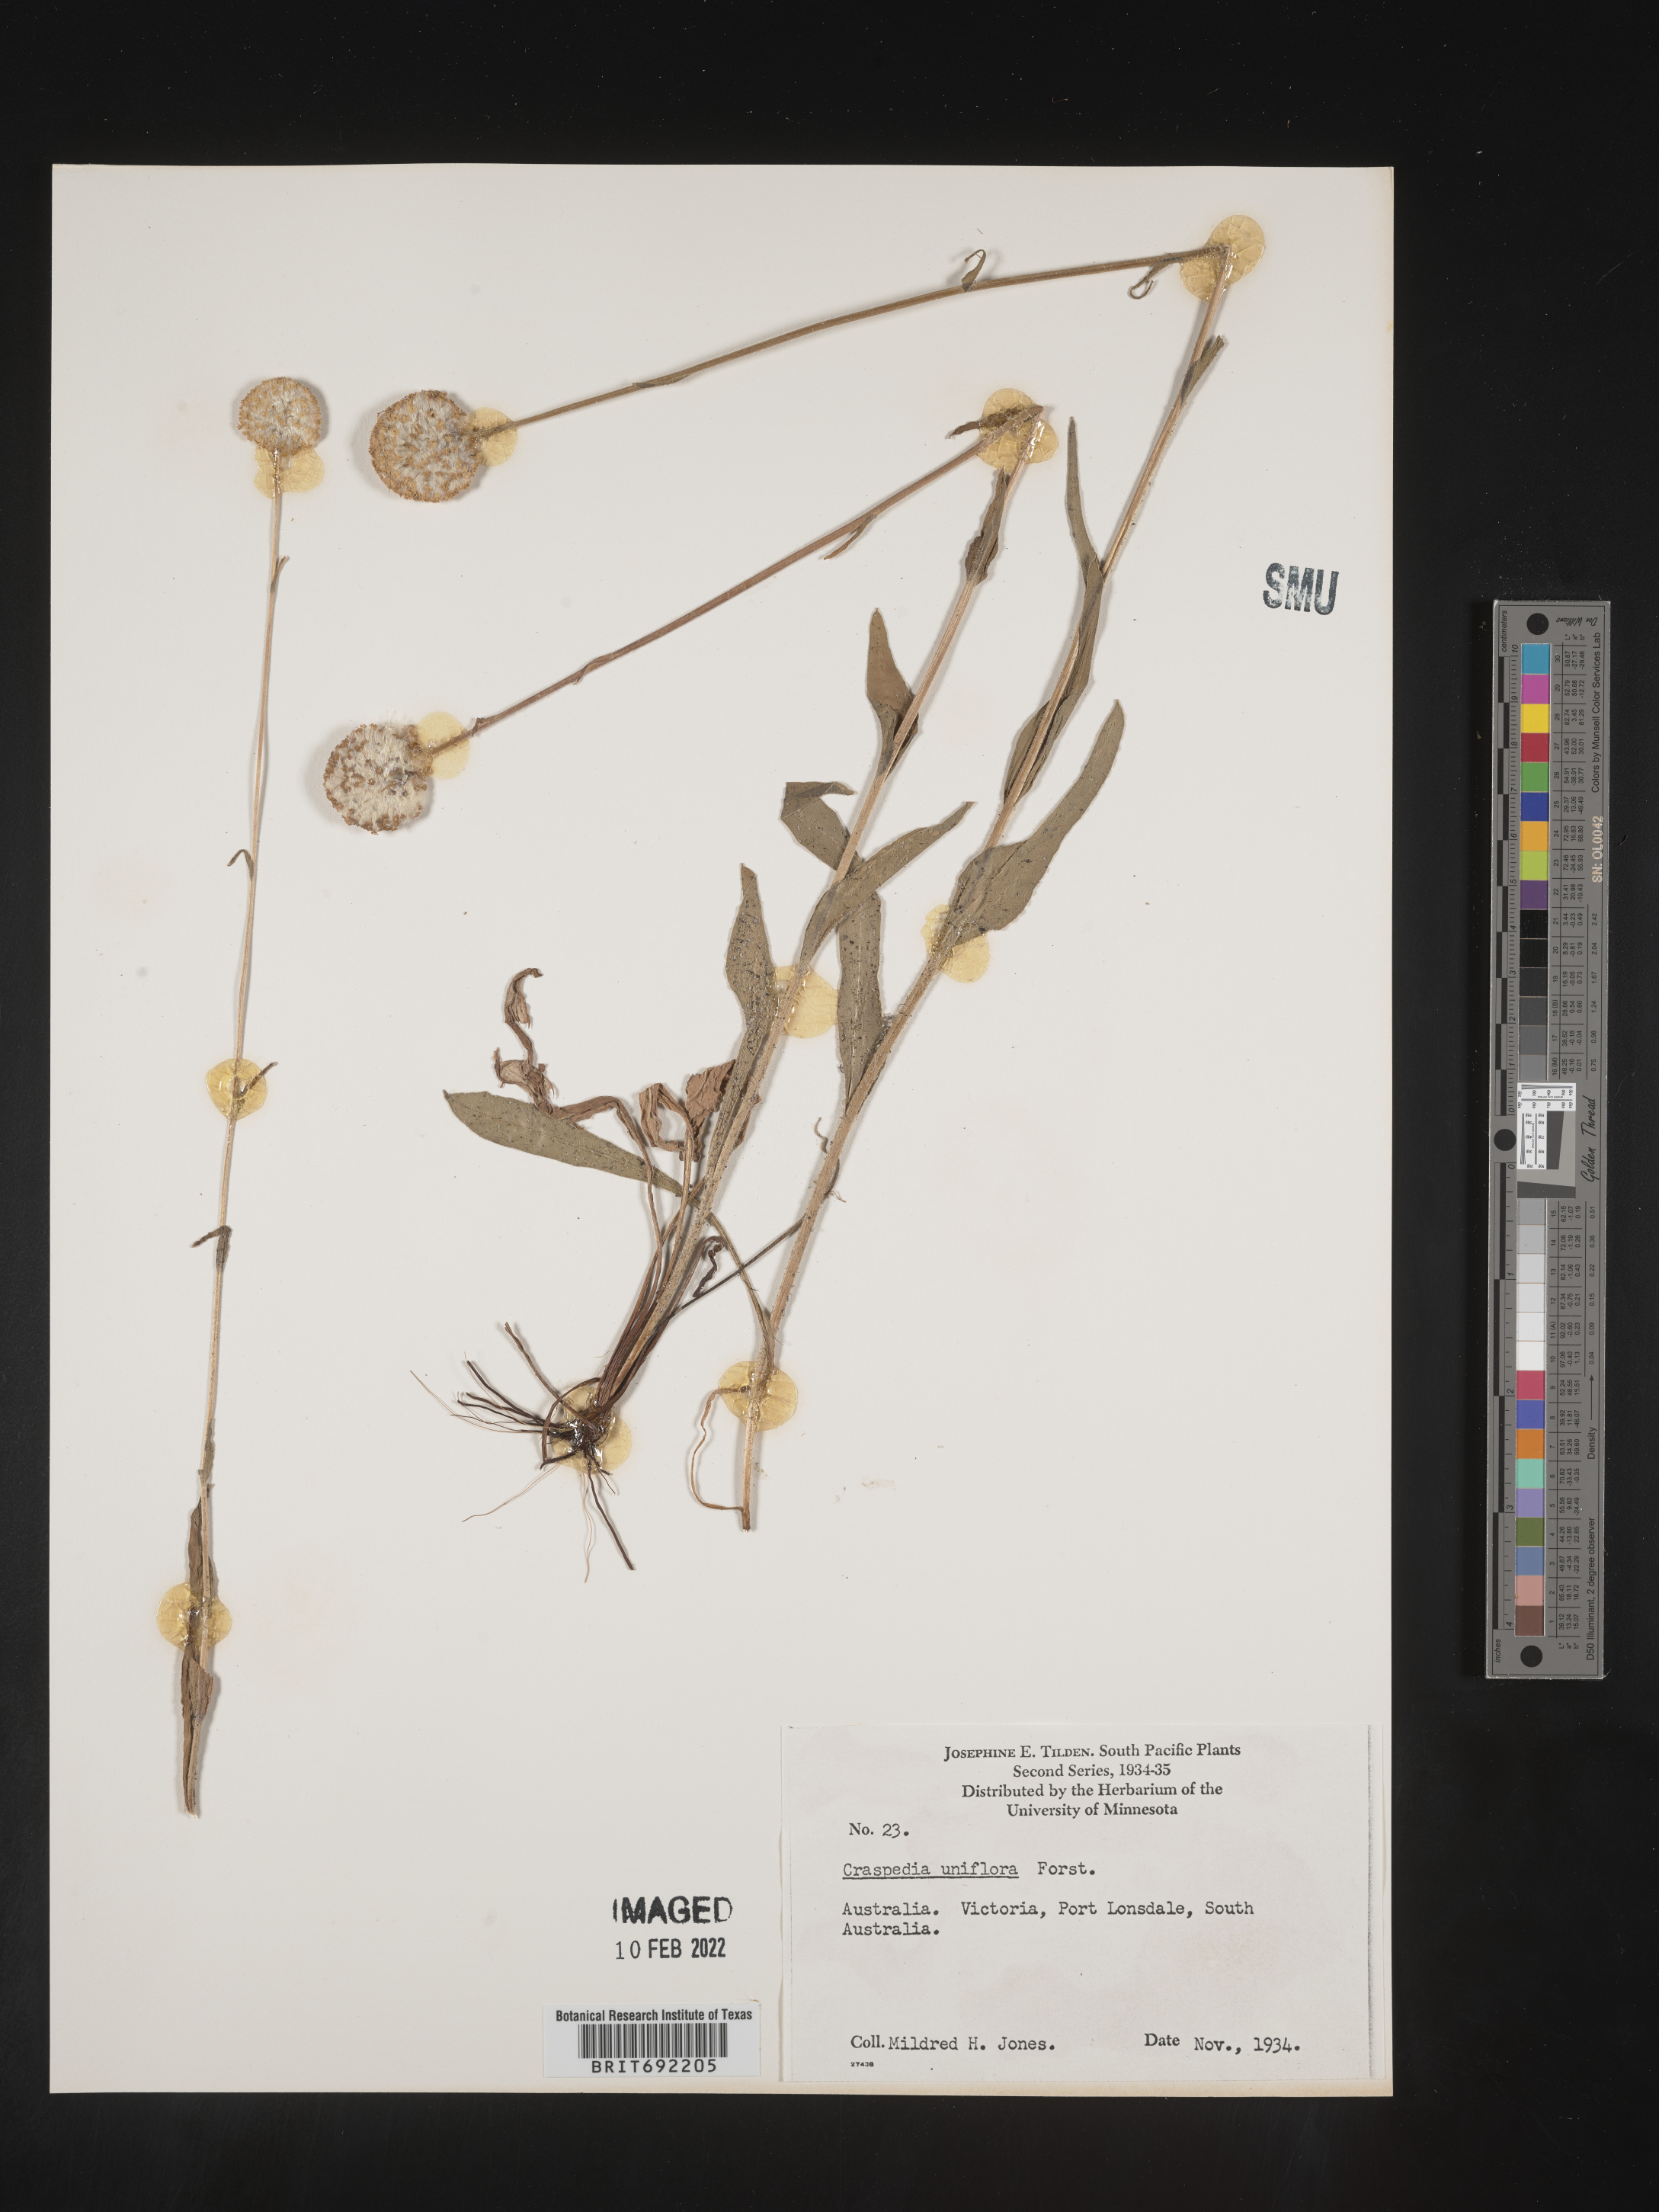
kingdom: Plantae
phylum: Tracheophyta
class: Magnoliopsida
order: Asterales
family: Asteraceae
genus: Craspedia
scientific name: Craspedia
